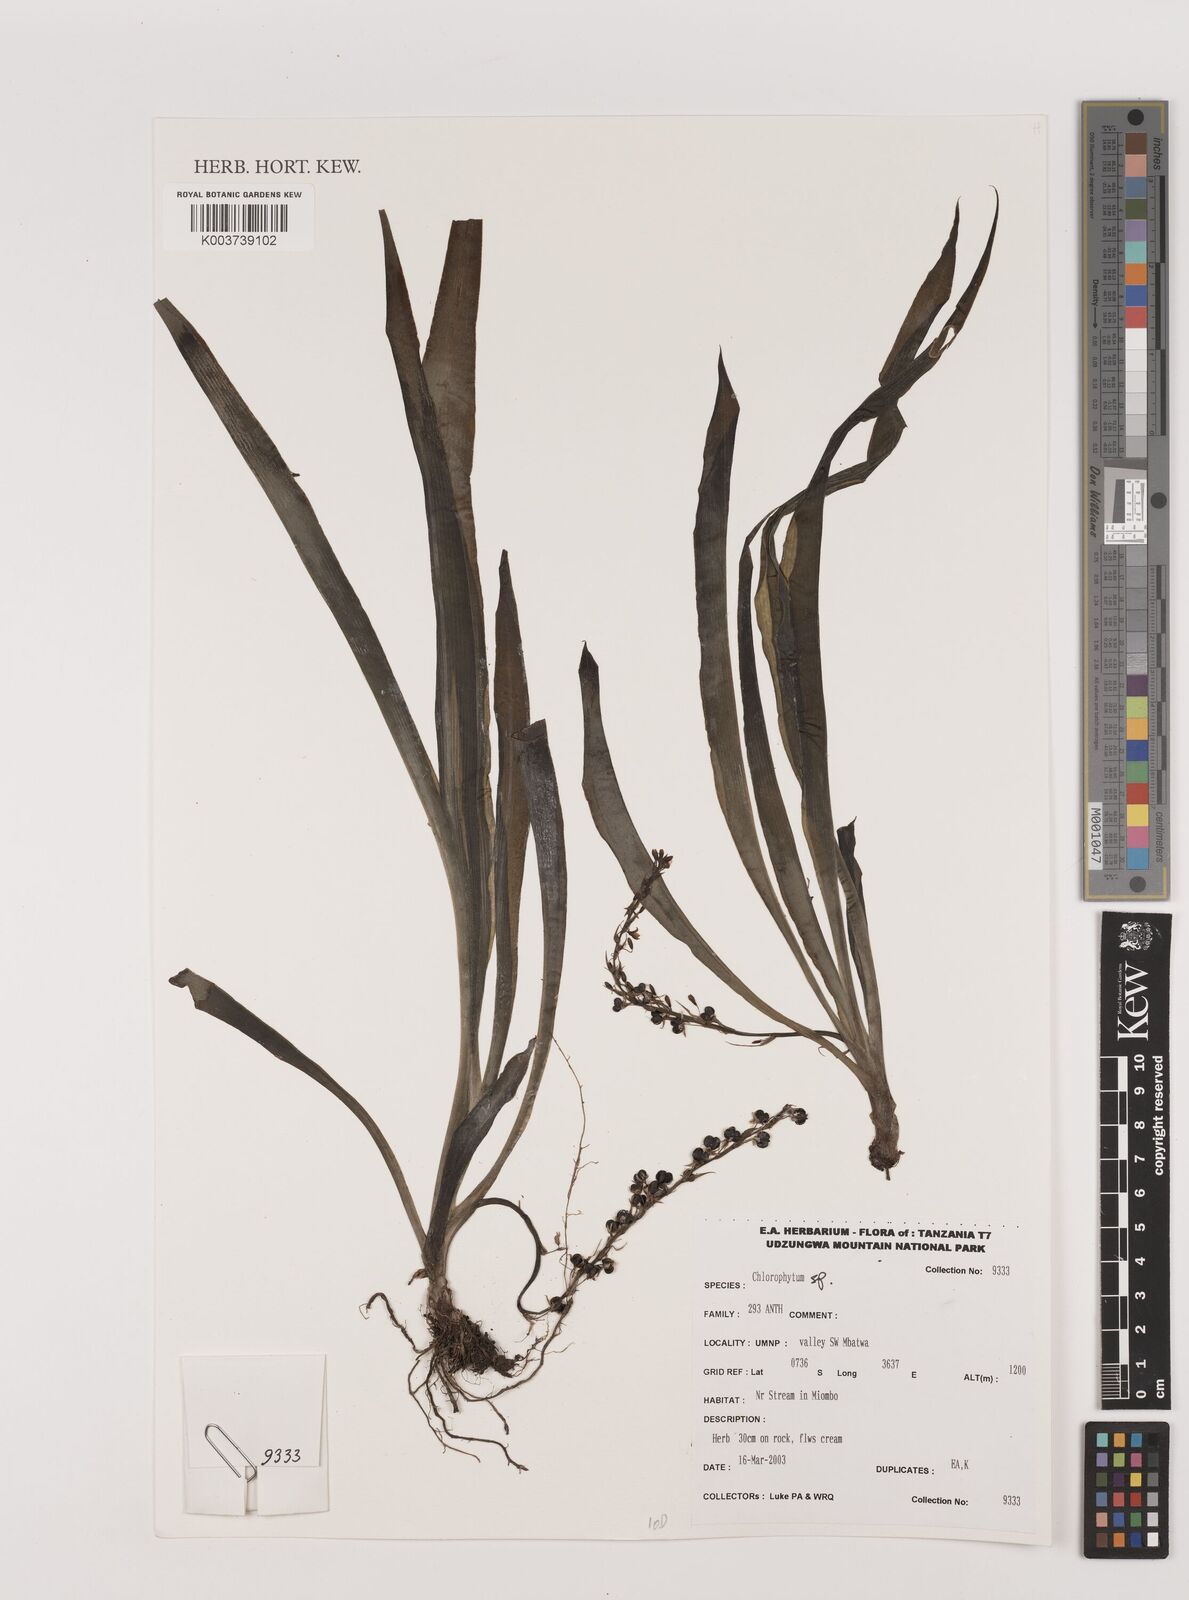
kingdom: Plantae
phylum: Tracheophyta
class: Liliopsida
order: Asparagales
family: Asparagaceae
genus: Chlorophytum
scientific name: Chlorophytum
